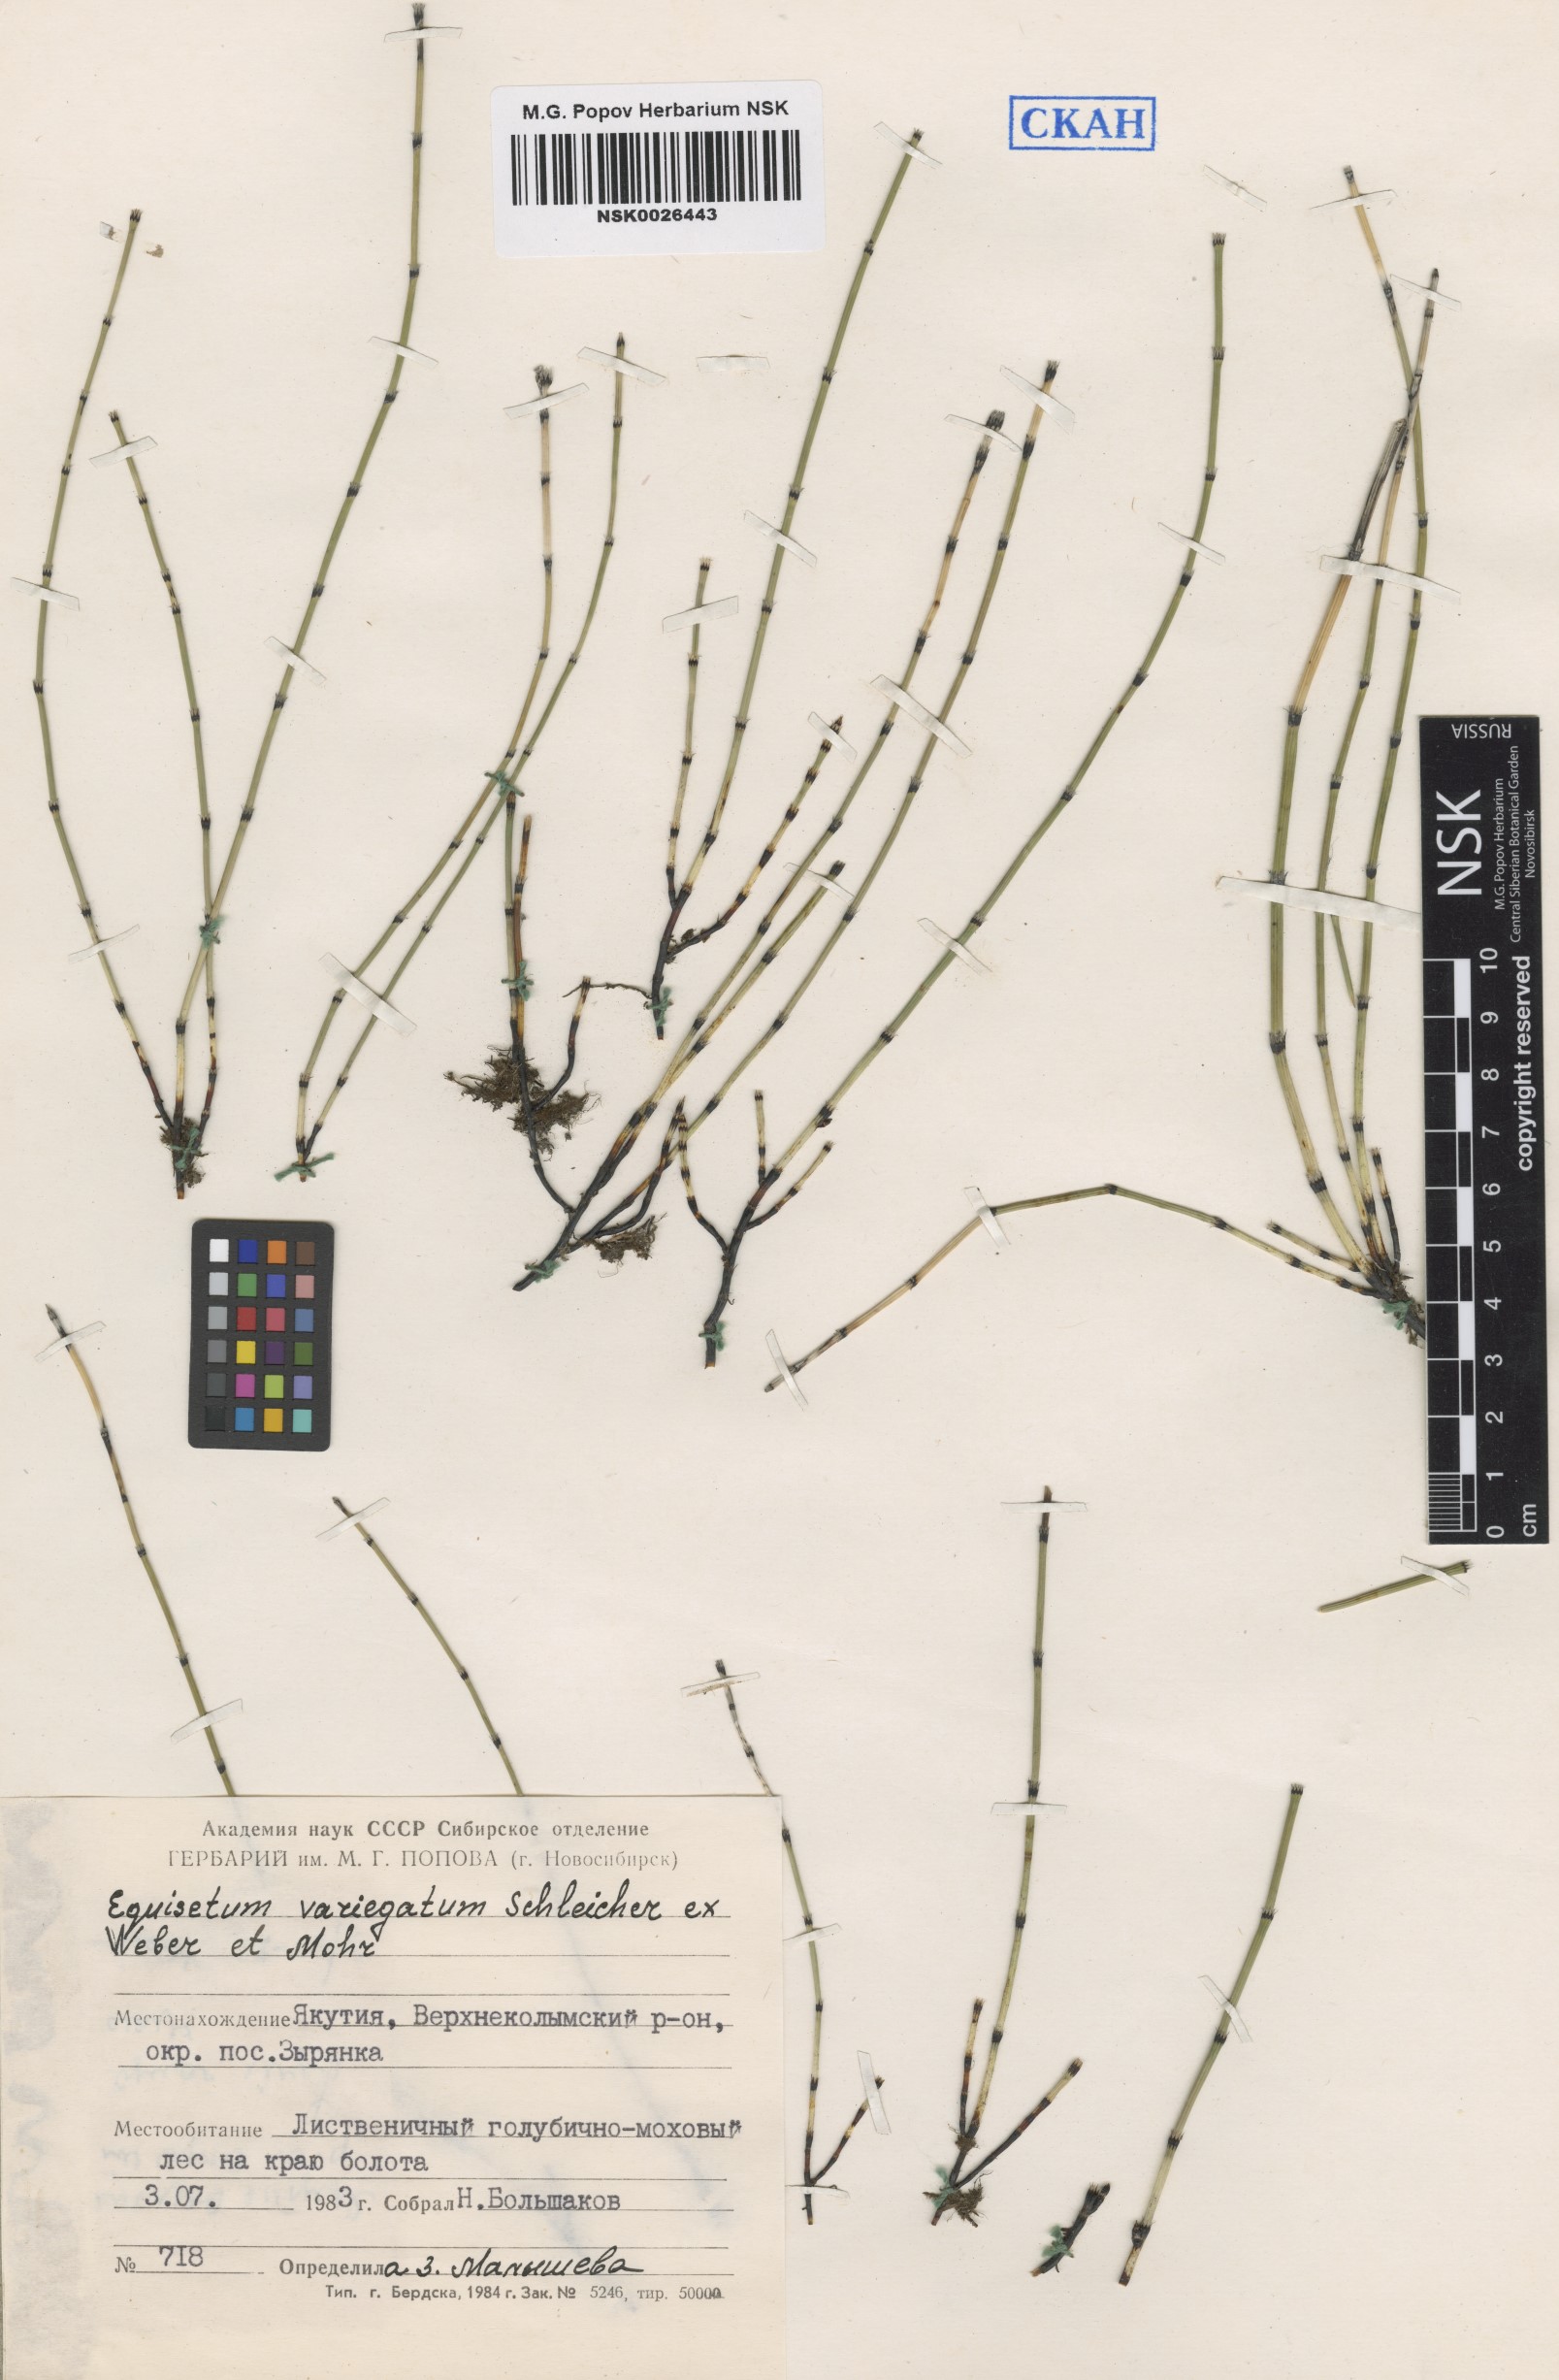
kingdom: Plantae
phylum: Tracheophyta
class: Polypodiopsida
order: Equisetales
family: Equisetaceae
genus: Equisetum
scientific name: Equisetum variegatum
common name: Variegated horsetail
